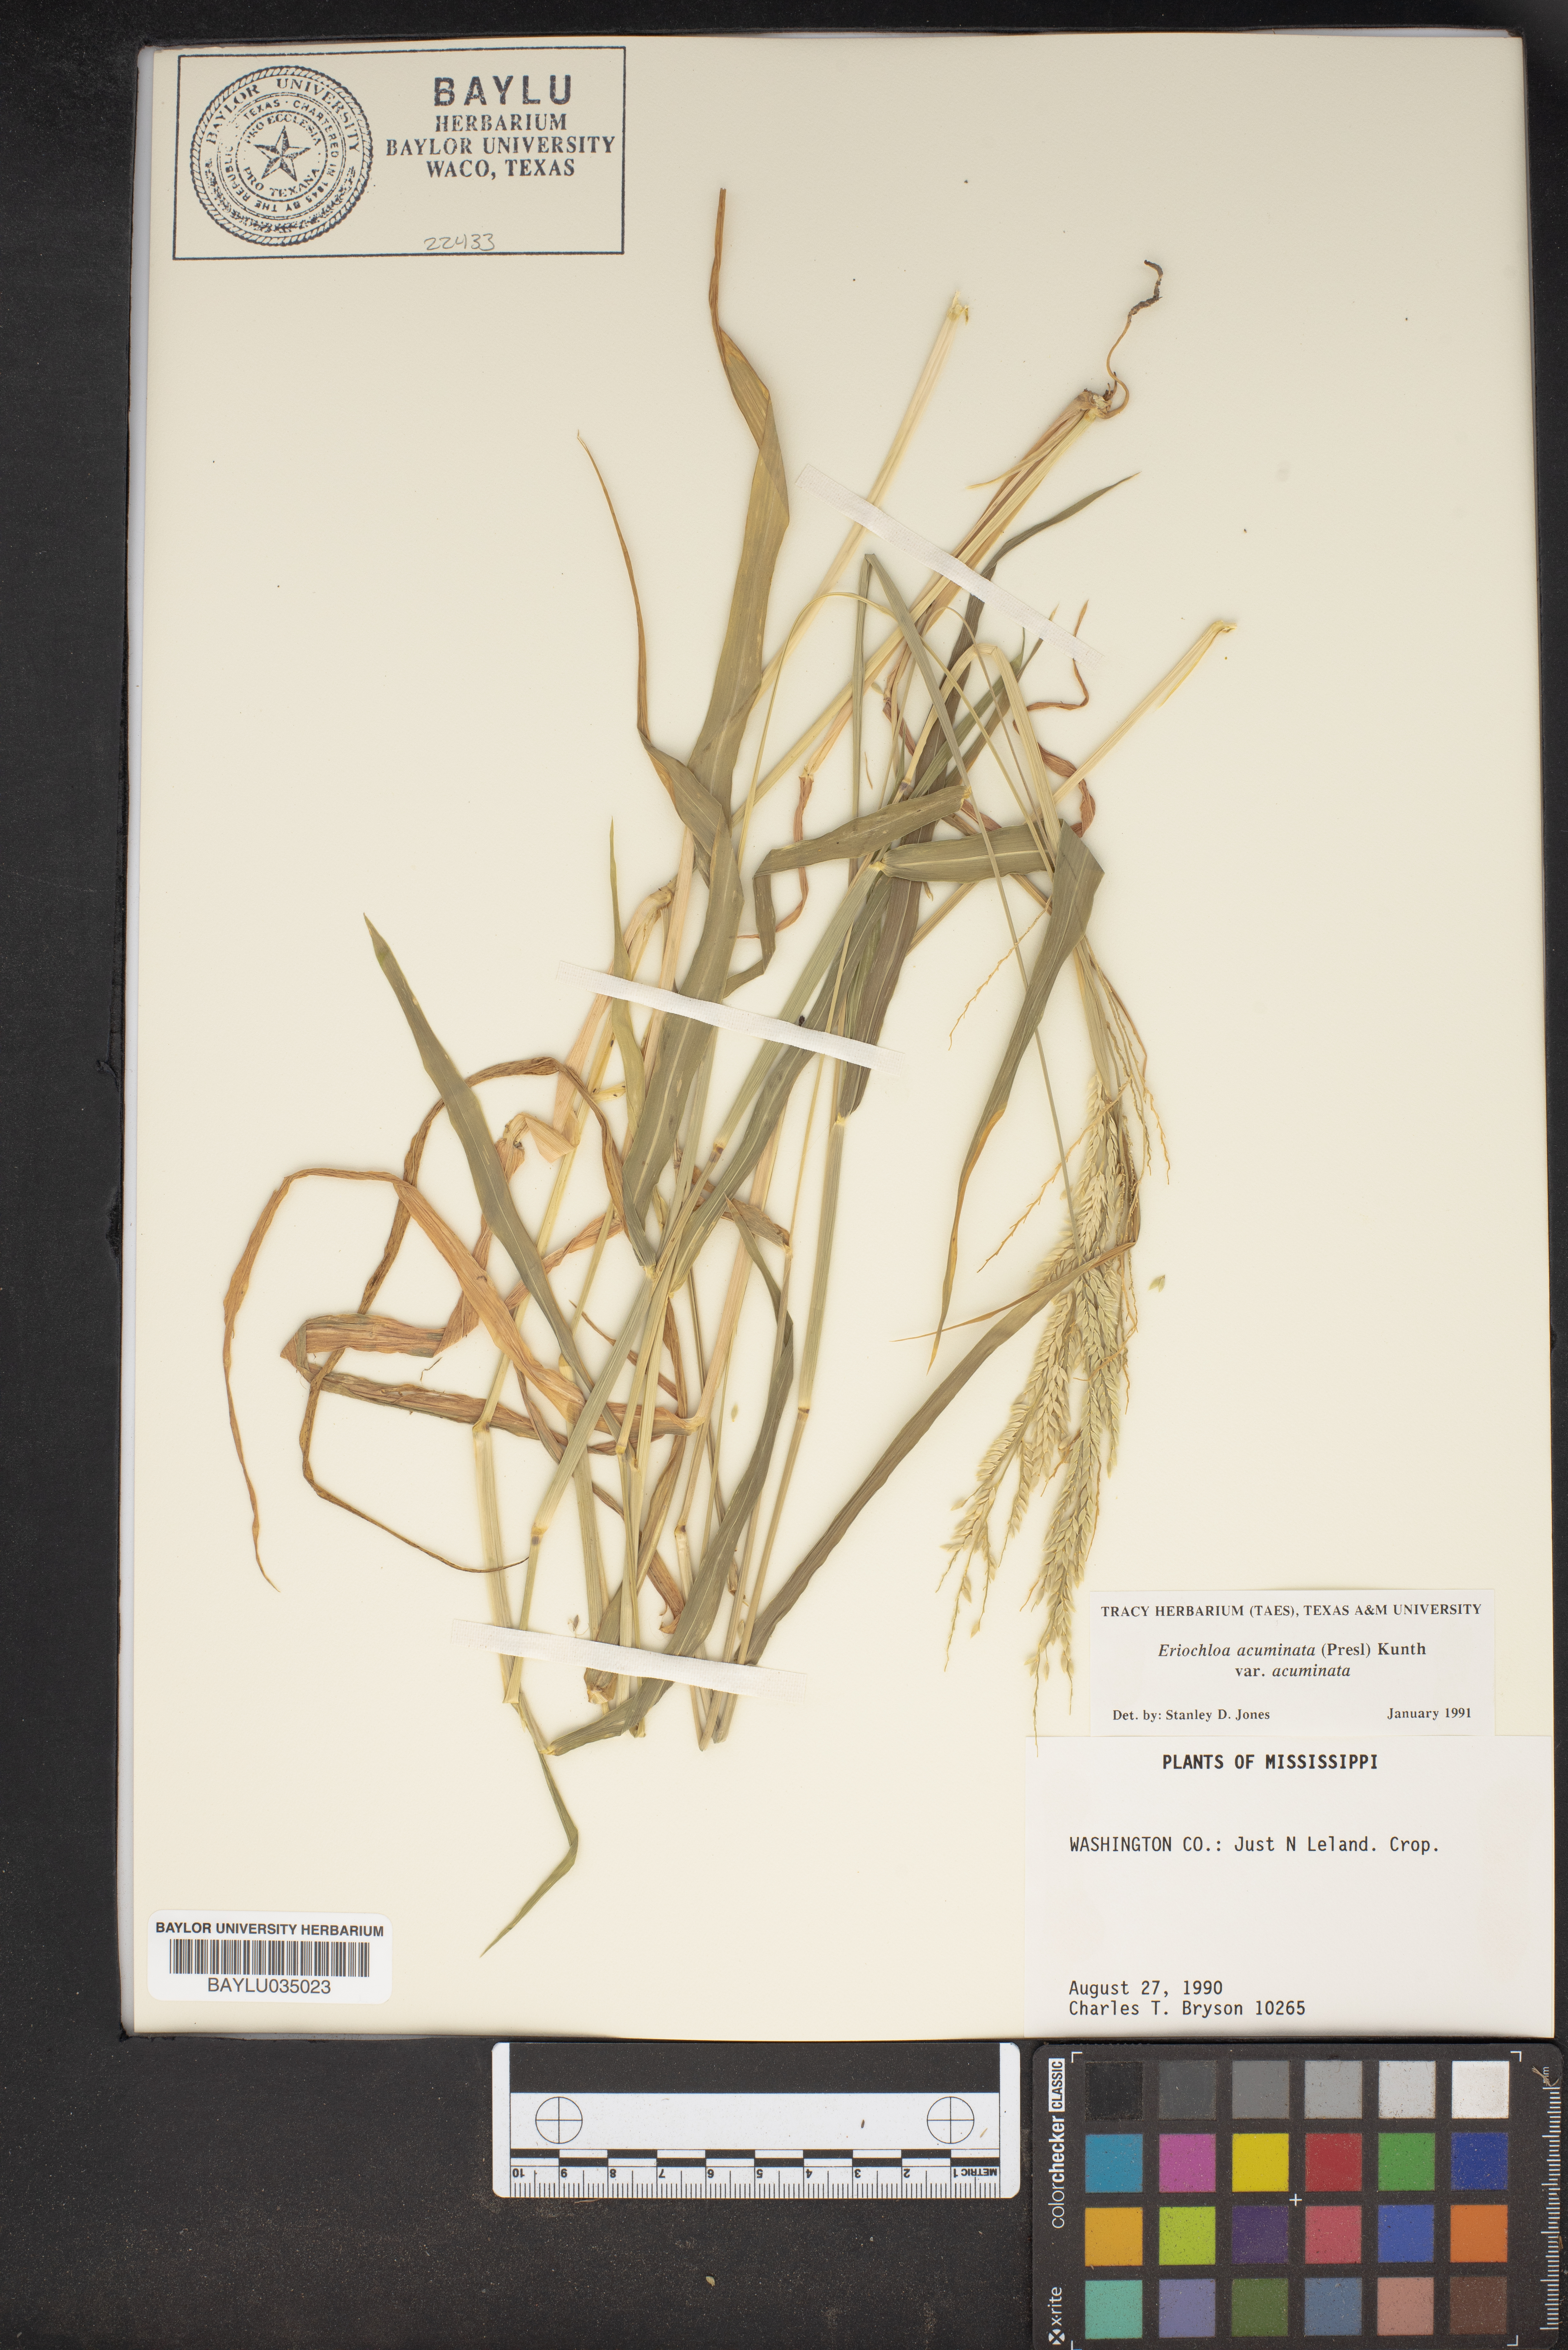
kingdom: Plantae
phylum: Tracheophyta
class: Liliopsida
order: Poales
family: Poaceae
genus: Eriochloa
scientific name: Eriochloa acuminata
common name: Southwestern cup grass
